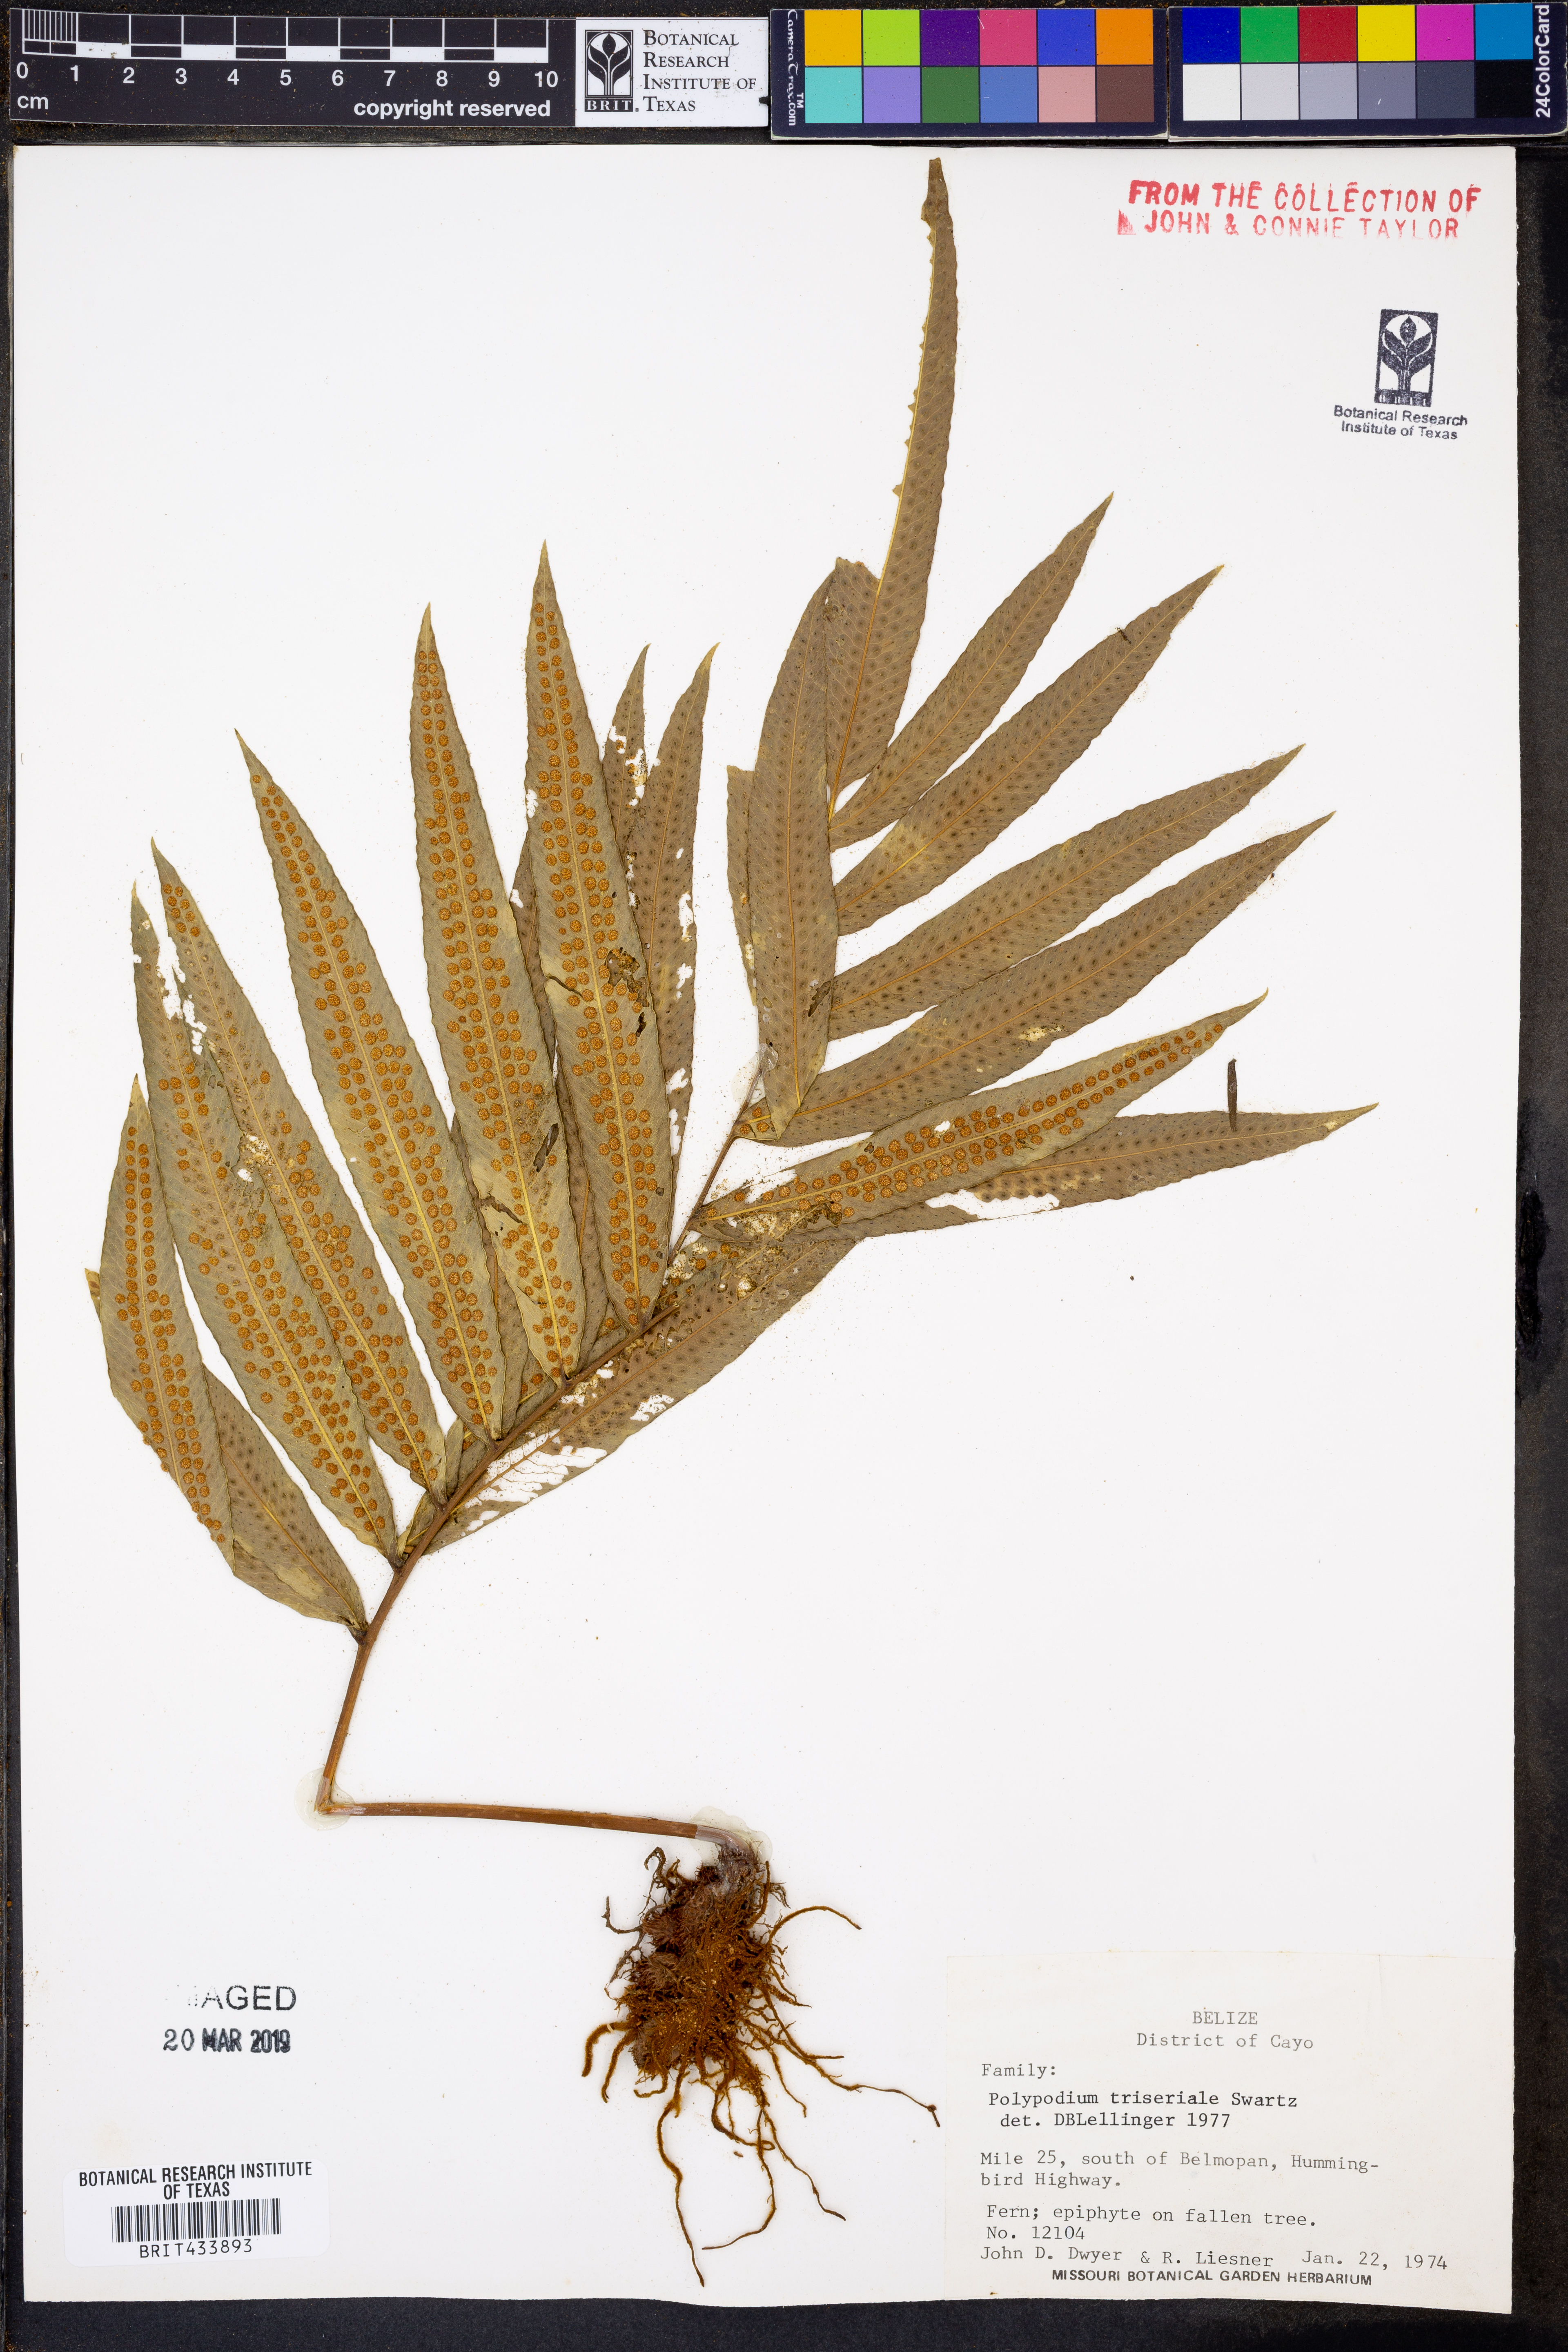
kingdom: Plantae
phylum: Tracheophyta
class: Polypodiopsida
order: Polypodiales
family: Polypodiaceae
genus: Serpocaulon
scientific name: Serpocaulon triseriale
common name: Angle-vein fern
